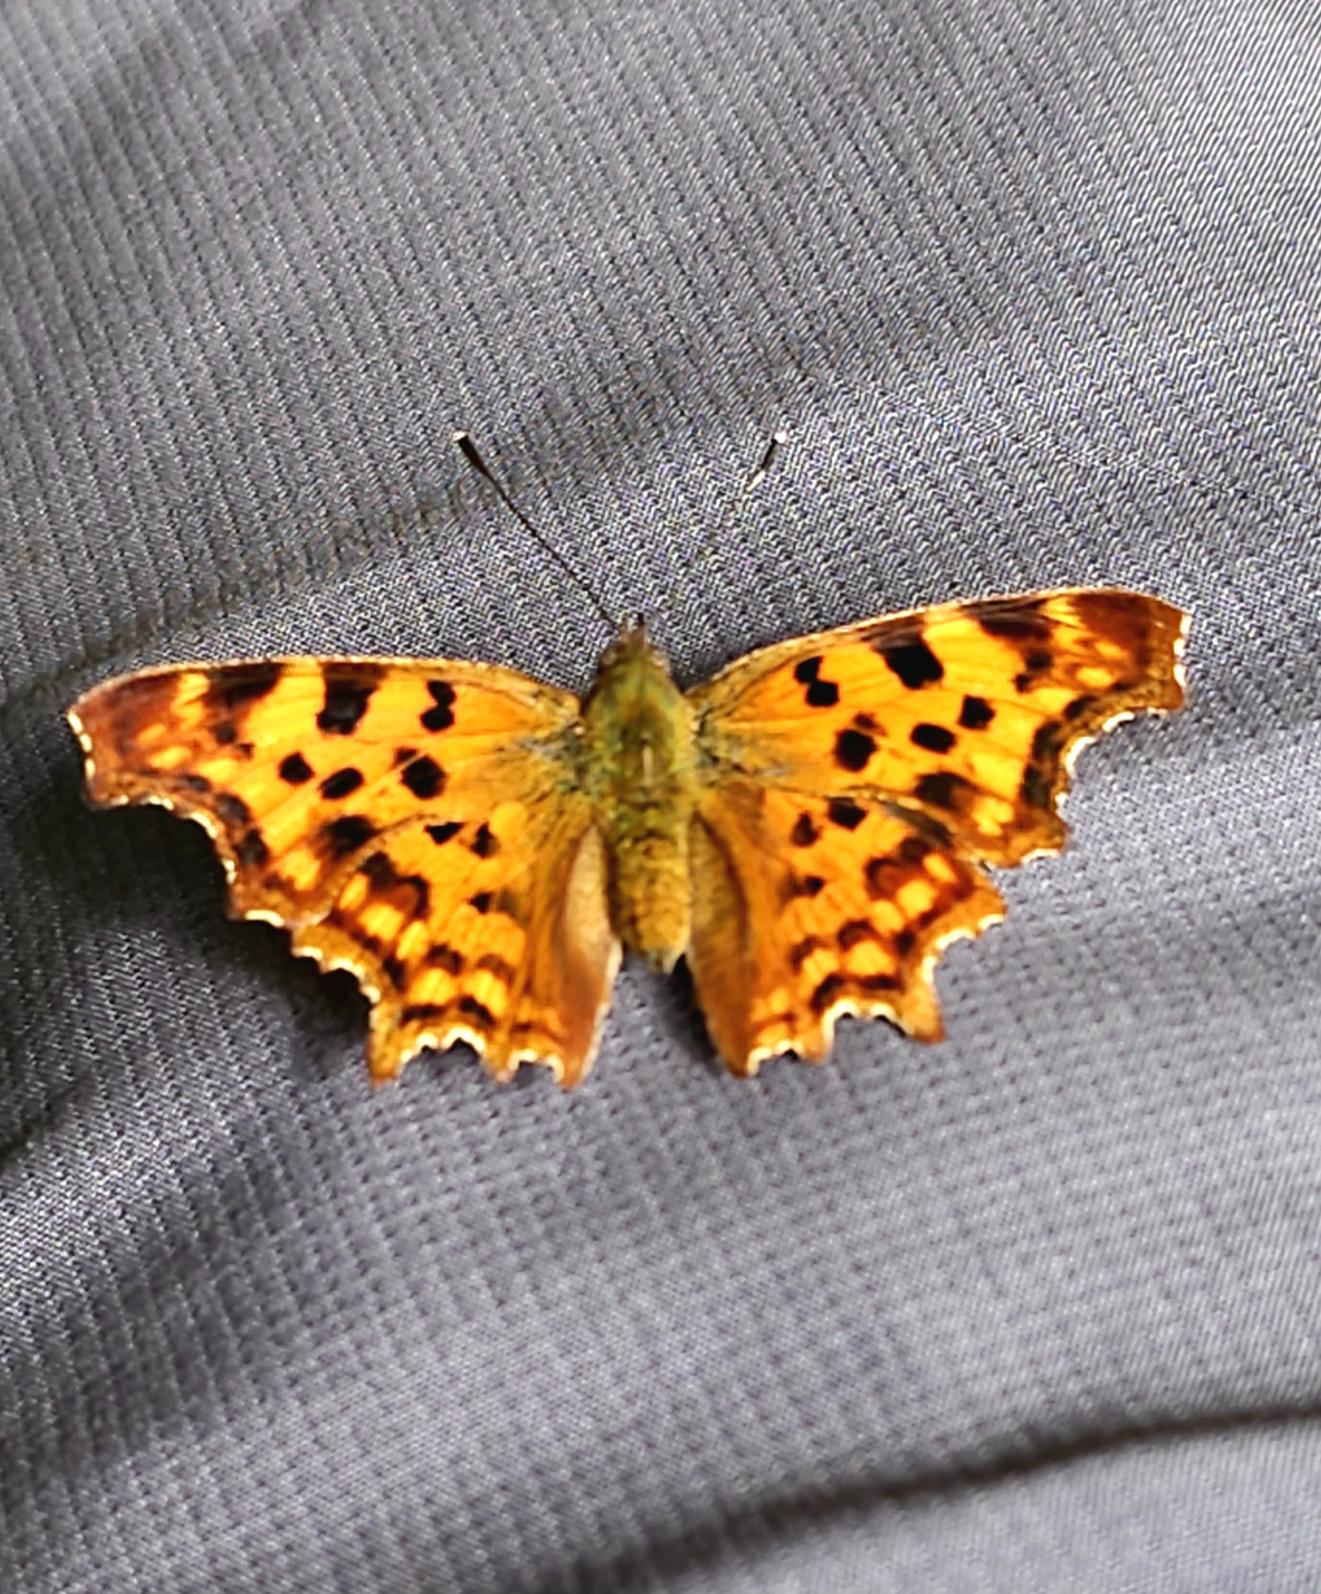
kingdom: Animalia
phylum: Arthropoda
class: Insecta
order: Lepidoptera
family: Nymphalidae
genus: Polygonia
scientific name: Polygonia c-album
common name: Det hvide C
